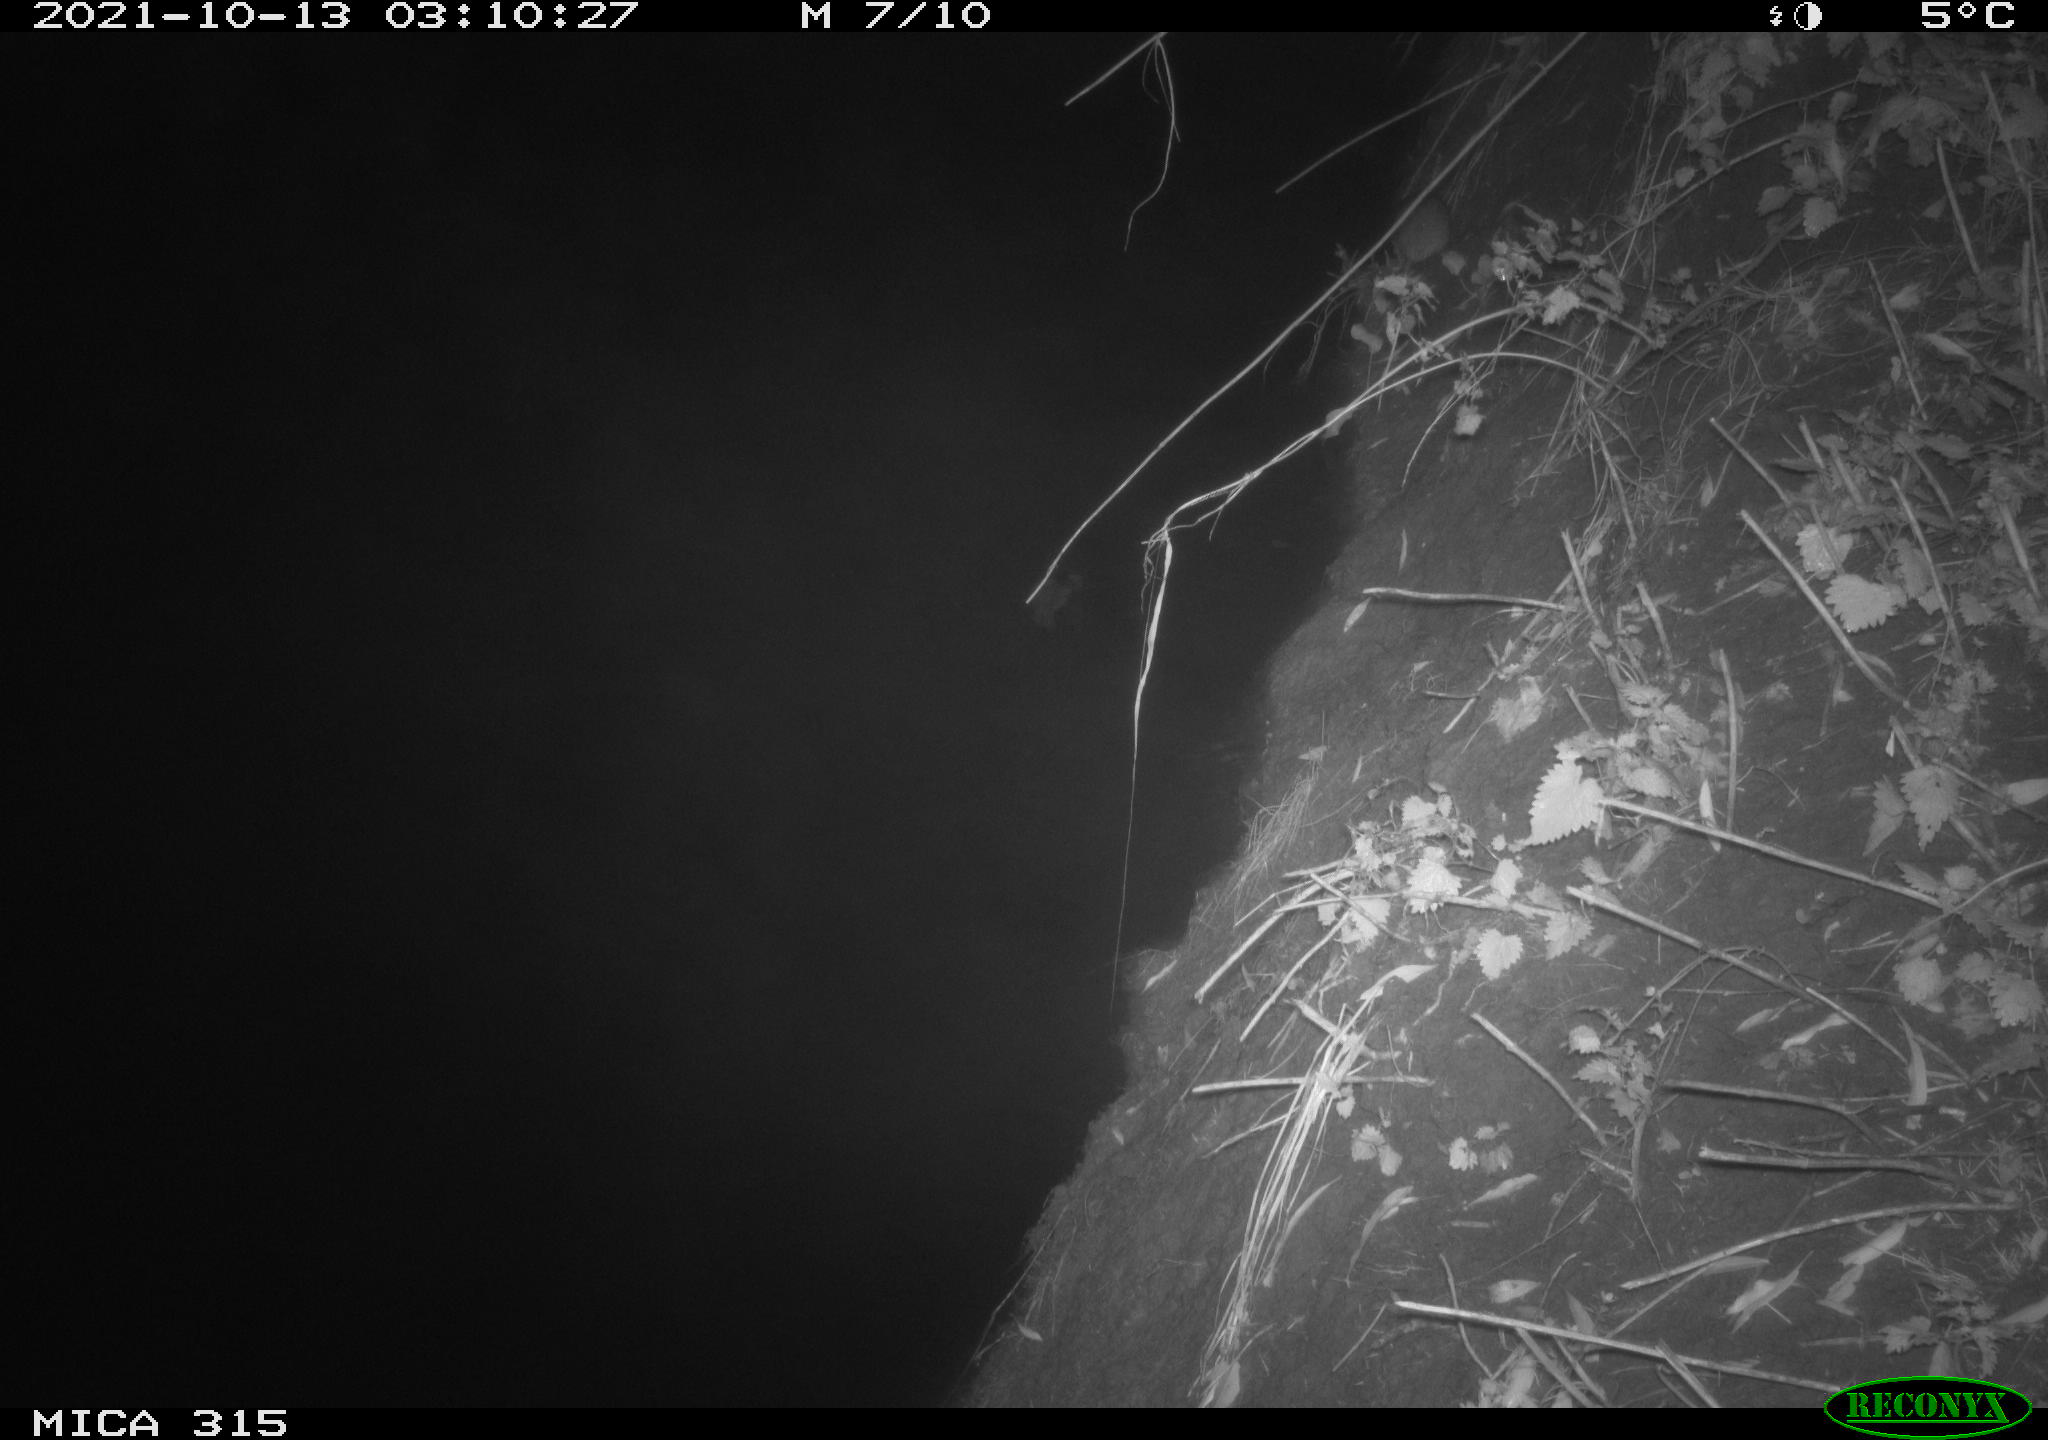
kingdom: Animalia
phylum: Chordata
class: Mammalia
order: Rodentia
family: Muridae
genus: Rattus
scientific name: Rattus norvegicus
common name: Brown rat
